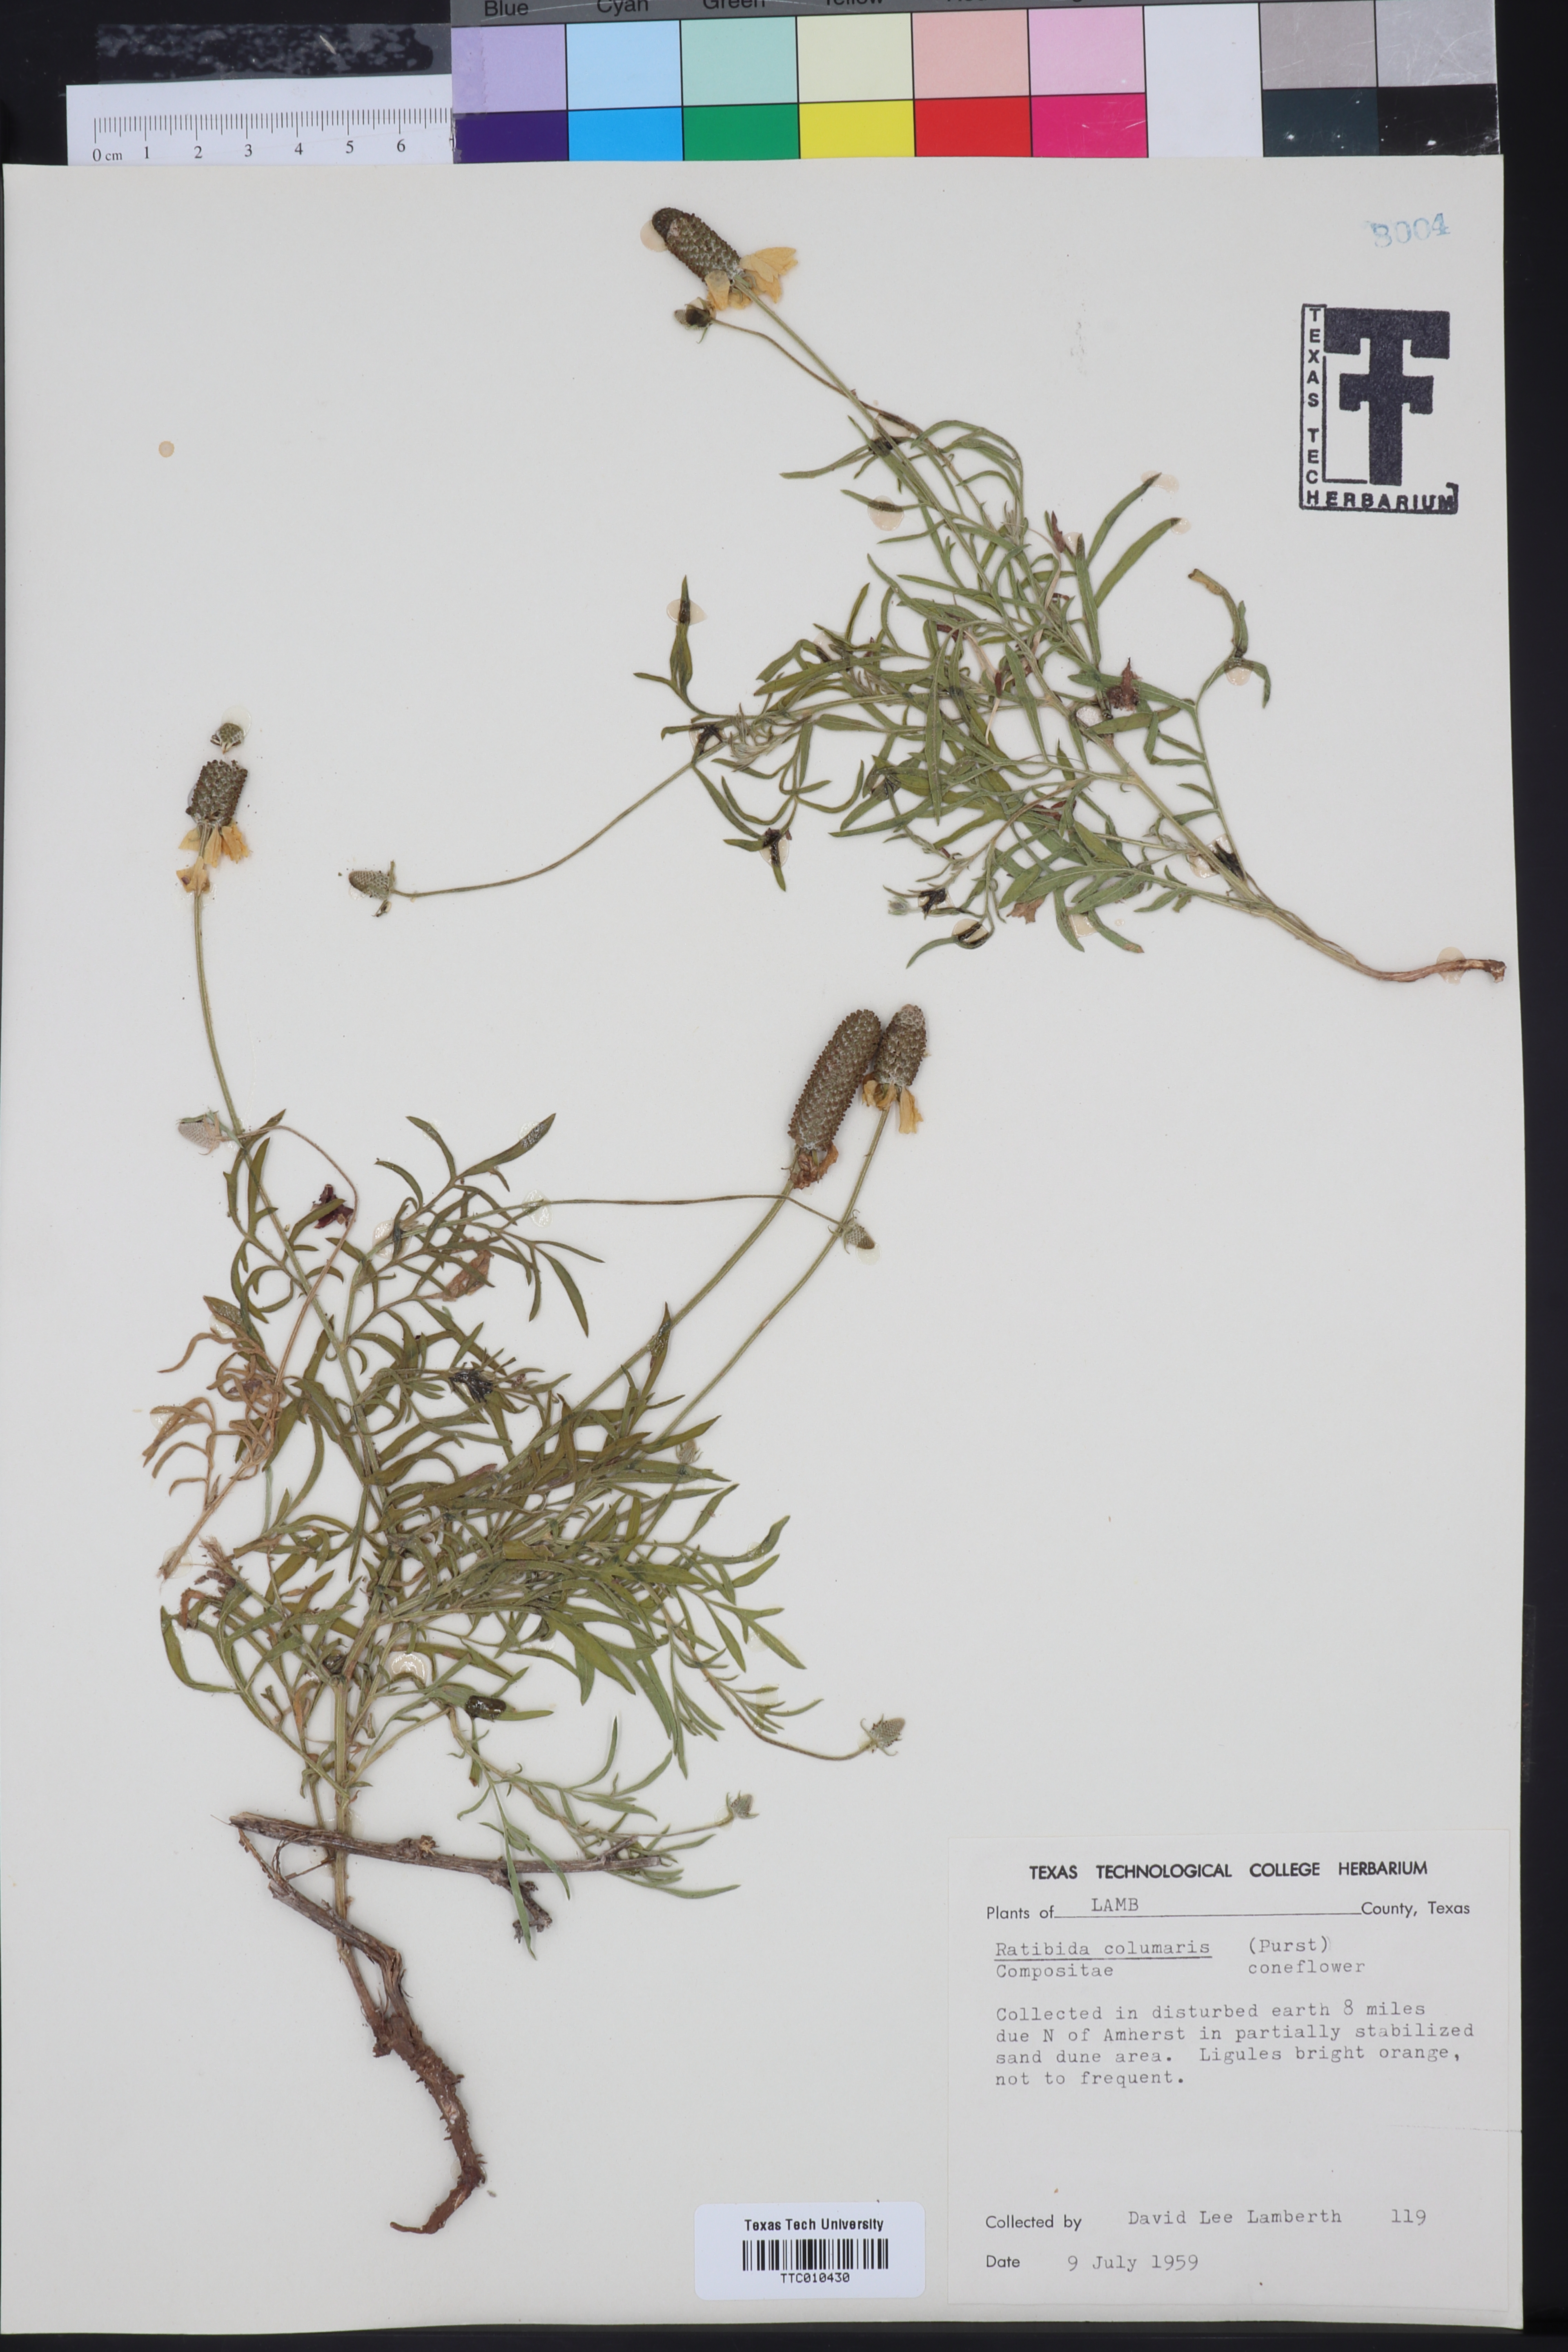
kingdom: Plantae
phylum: Tracheophyta
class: Magnoliopsida
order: Asterales
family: Asteraceae
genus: Ratibida
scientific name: Ratibida columnifera
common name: Prairie coneflower
